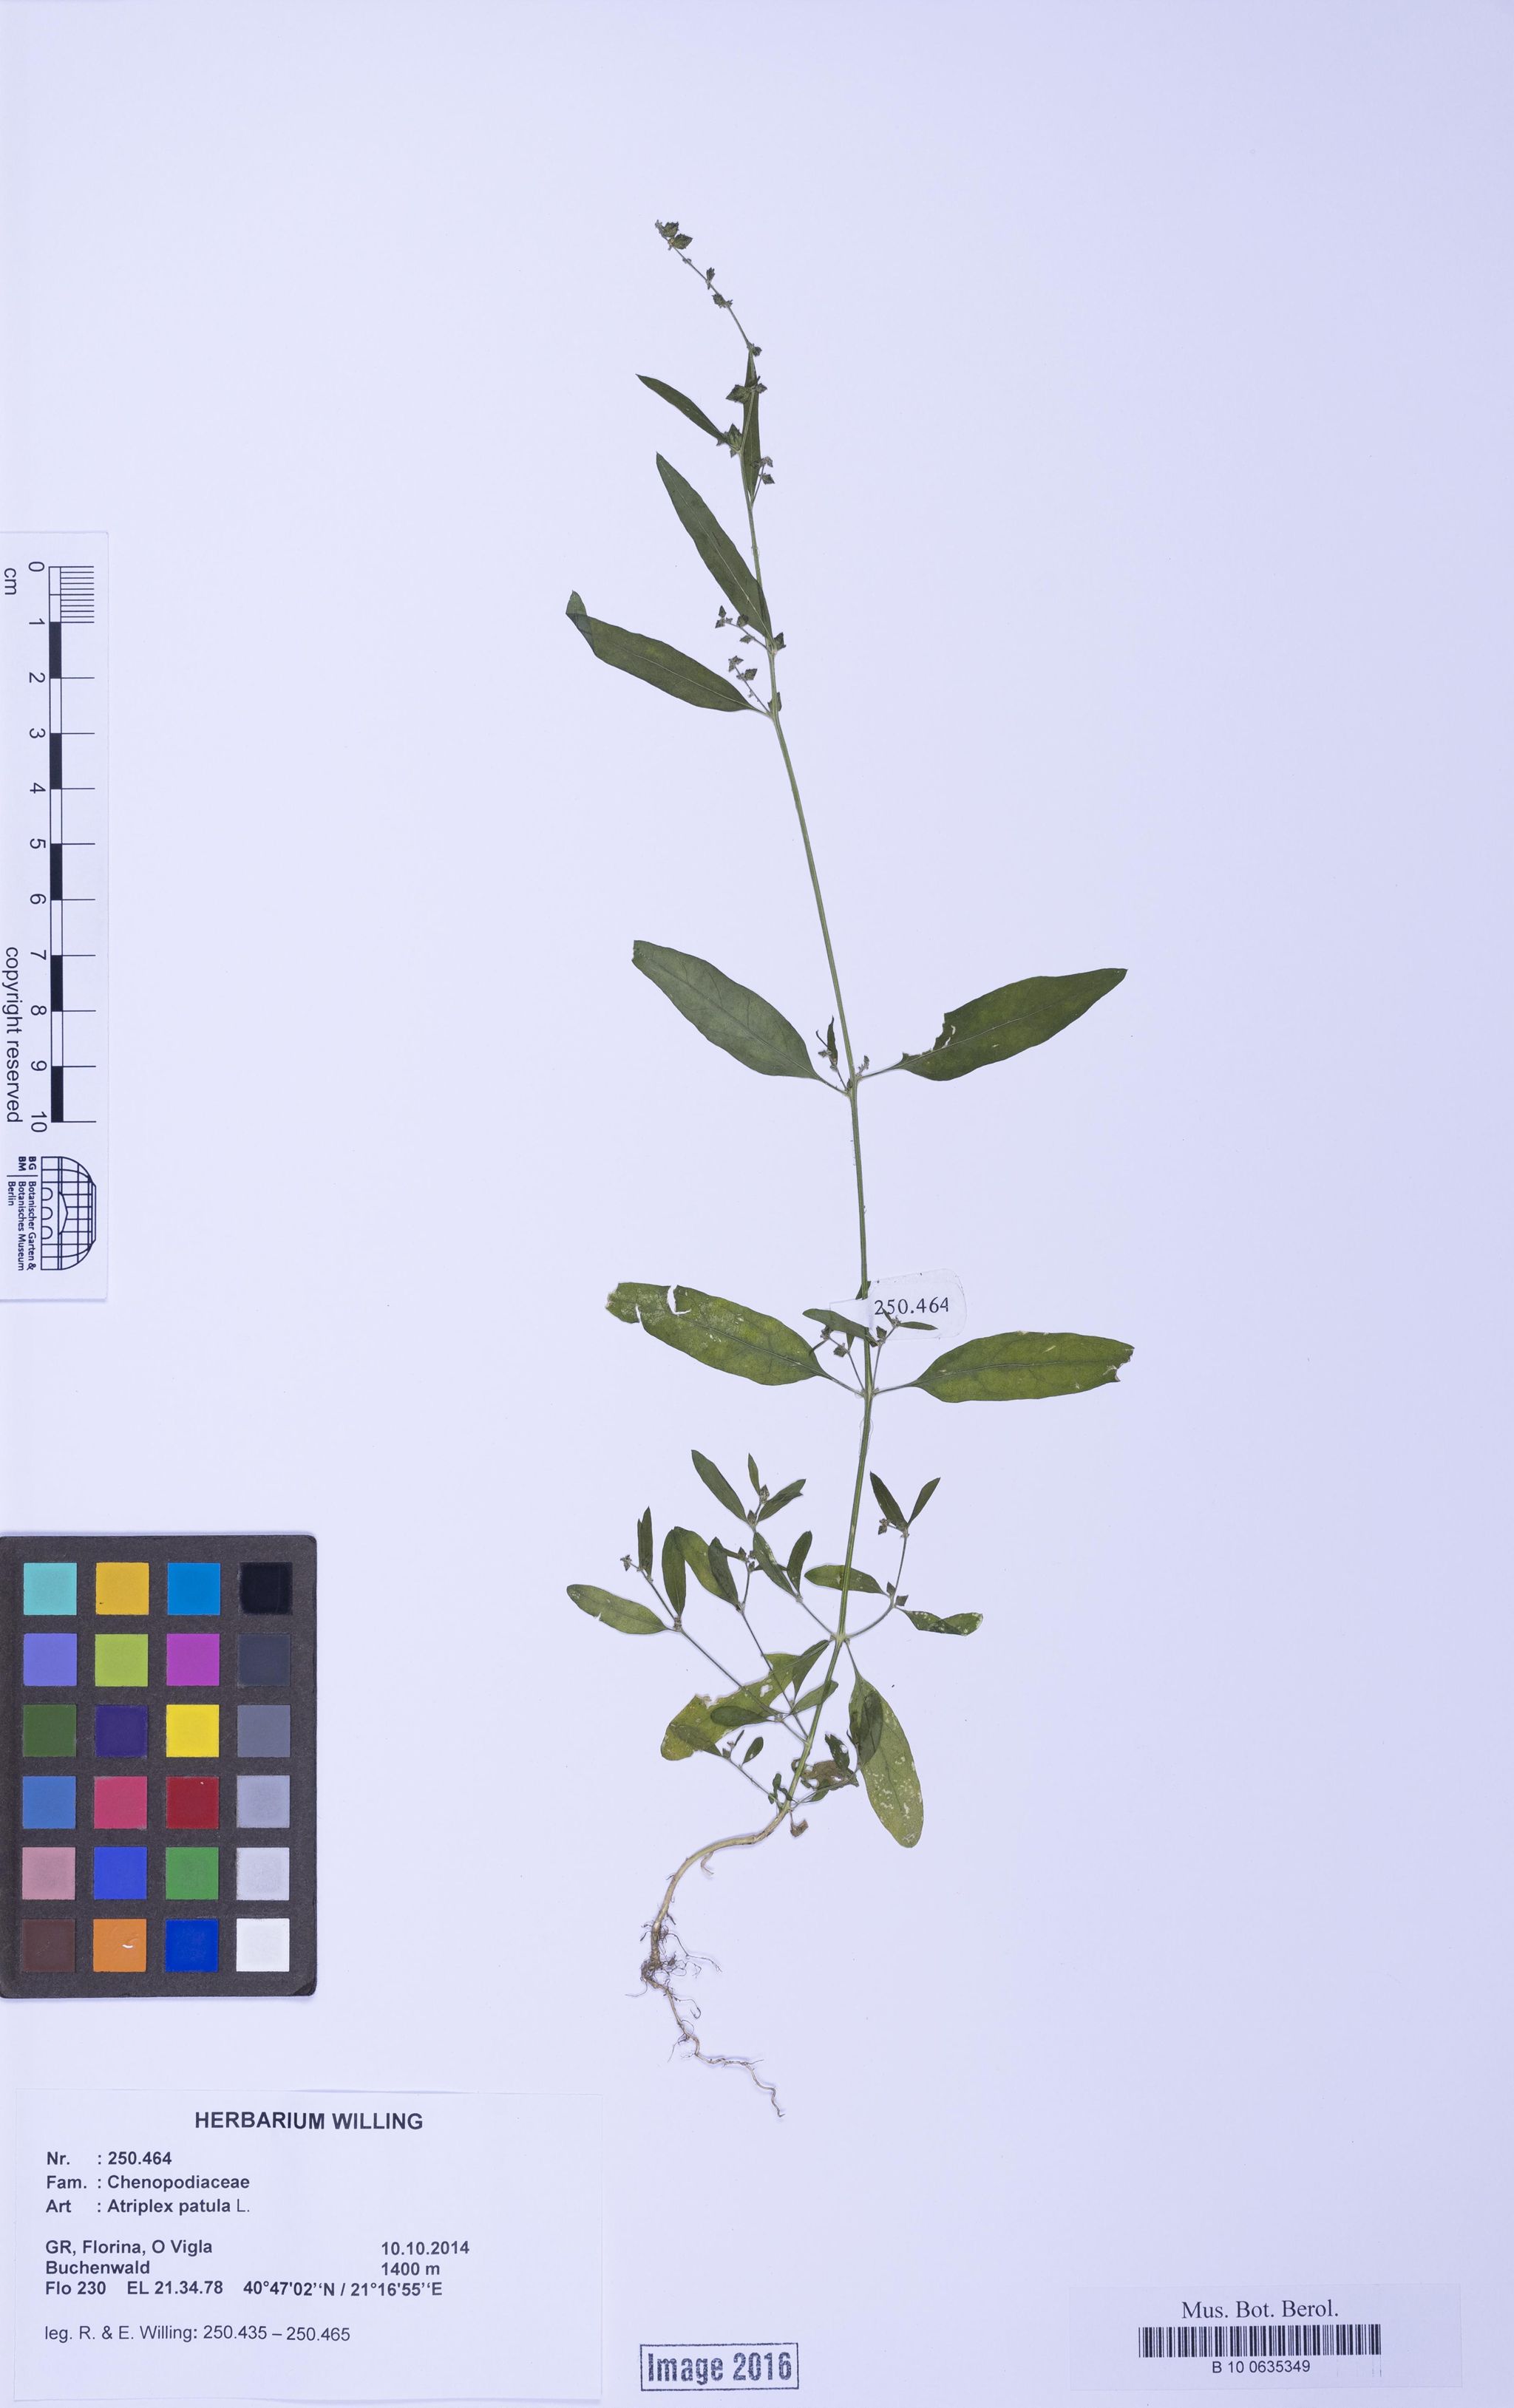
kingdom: Plantae
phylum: Tracheophyta
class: Magnoliopsida
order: Caryophyllales
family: Amaranthaceae
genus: Atriplex
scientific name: Atriplex patula
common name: Common orache
